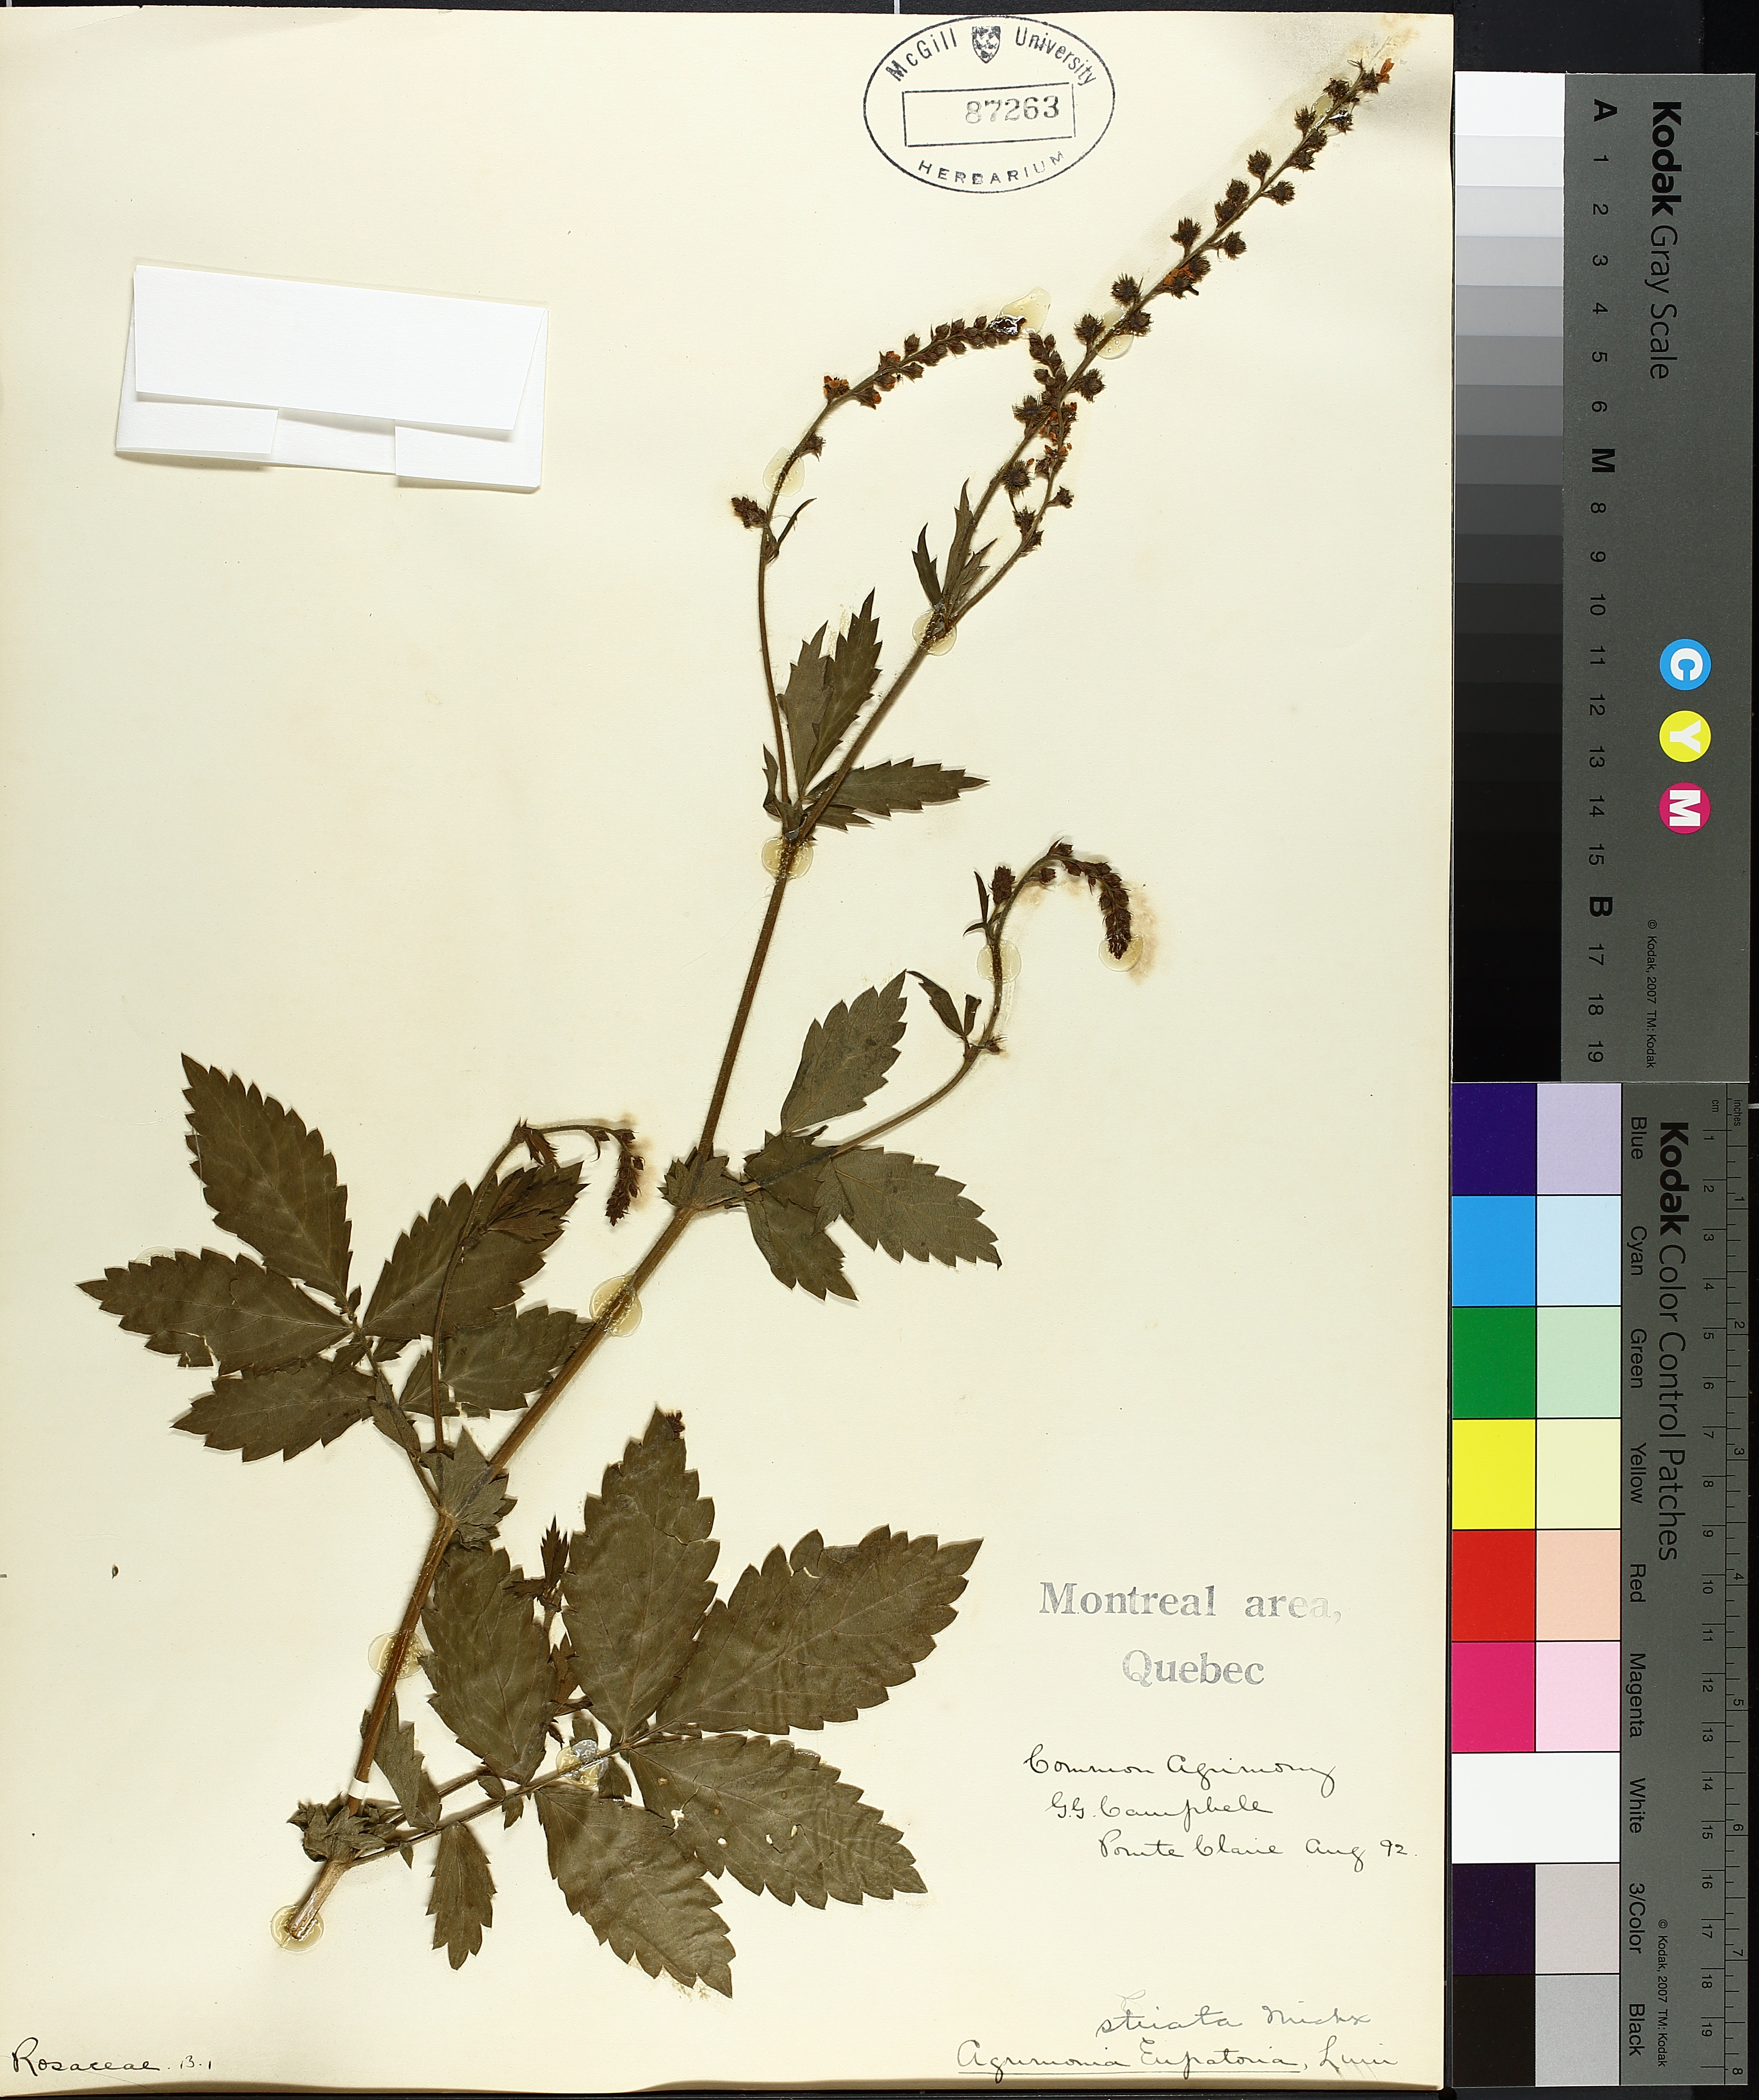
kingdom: Plantae
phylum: Tracheophyta
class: Magnoliopsida
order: Caryophyllales
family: Polygonaceae
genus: Persicaria
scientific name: Persicaria lapathifolia
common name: Curlytop knotweed
